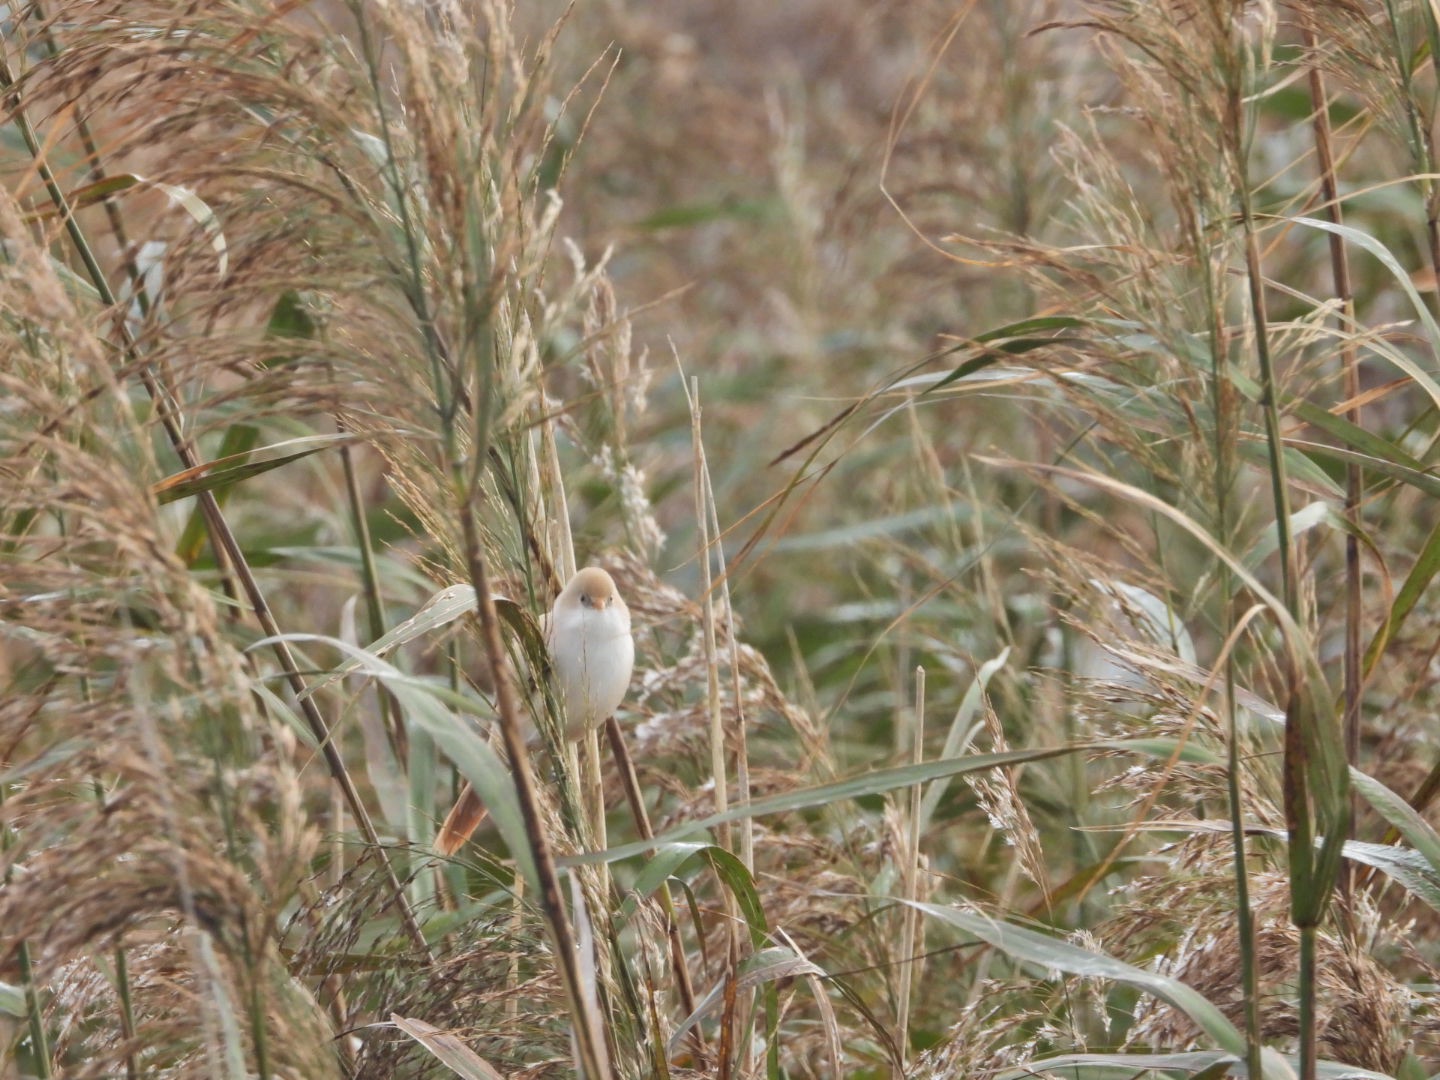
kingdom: Animalia
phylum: Chordata
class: Aves
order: Passeriformes
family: Panuridae
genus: Panurus
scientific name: Panurus biarmicus
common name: Skægmejse
